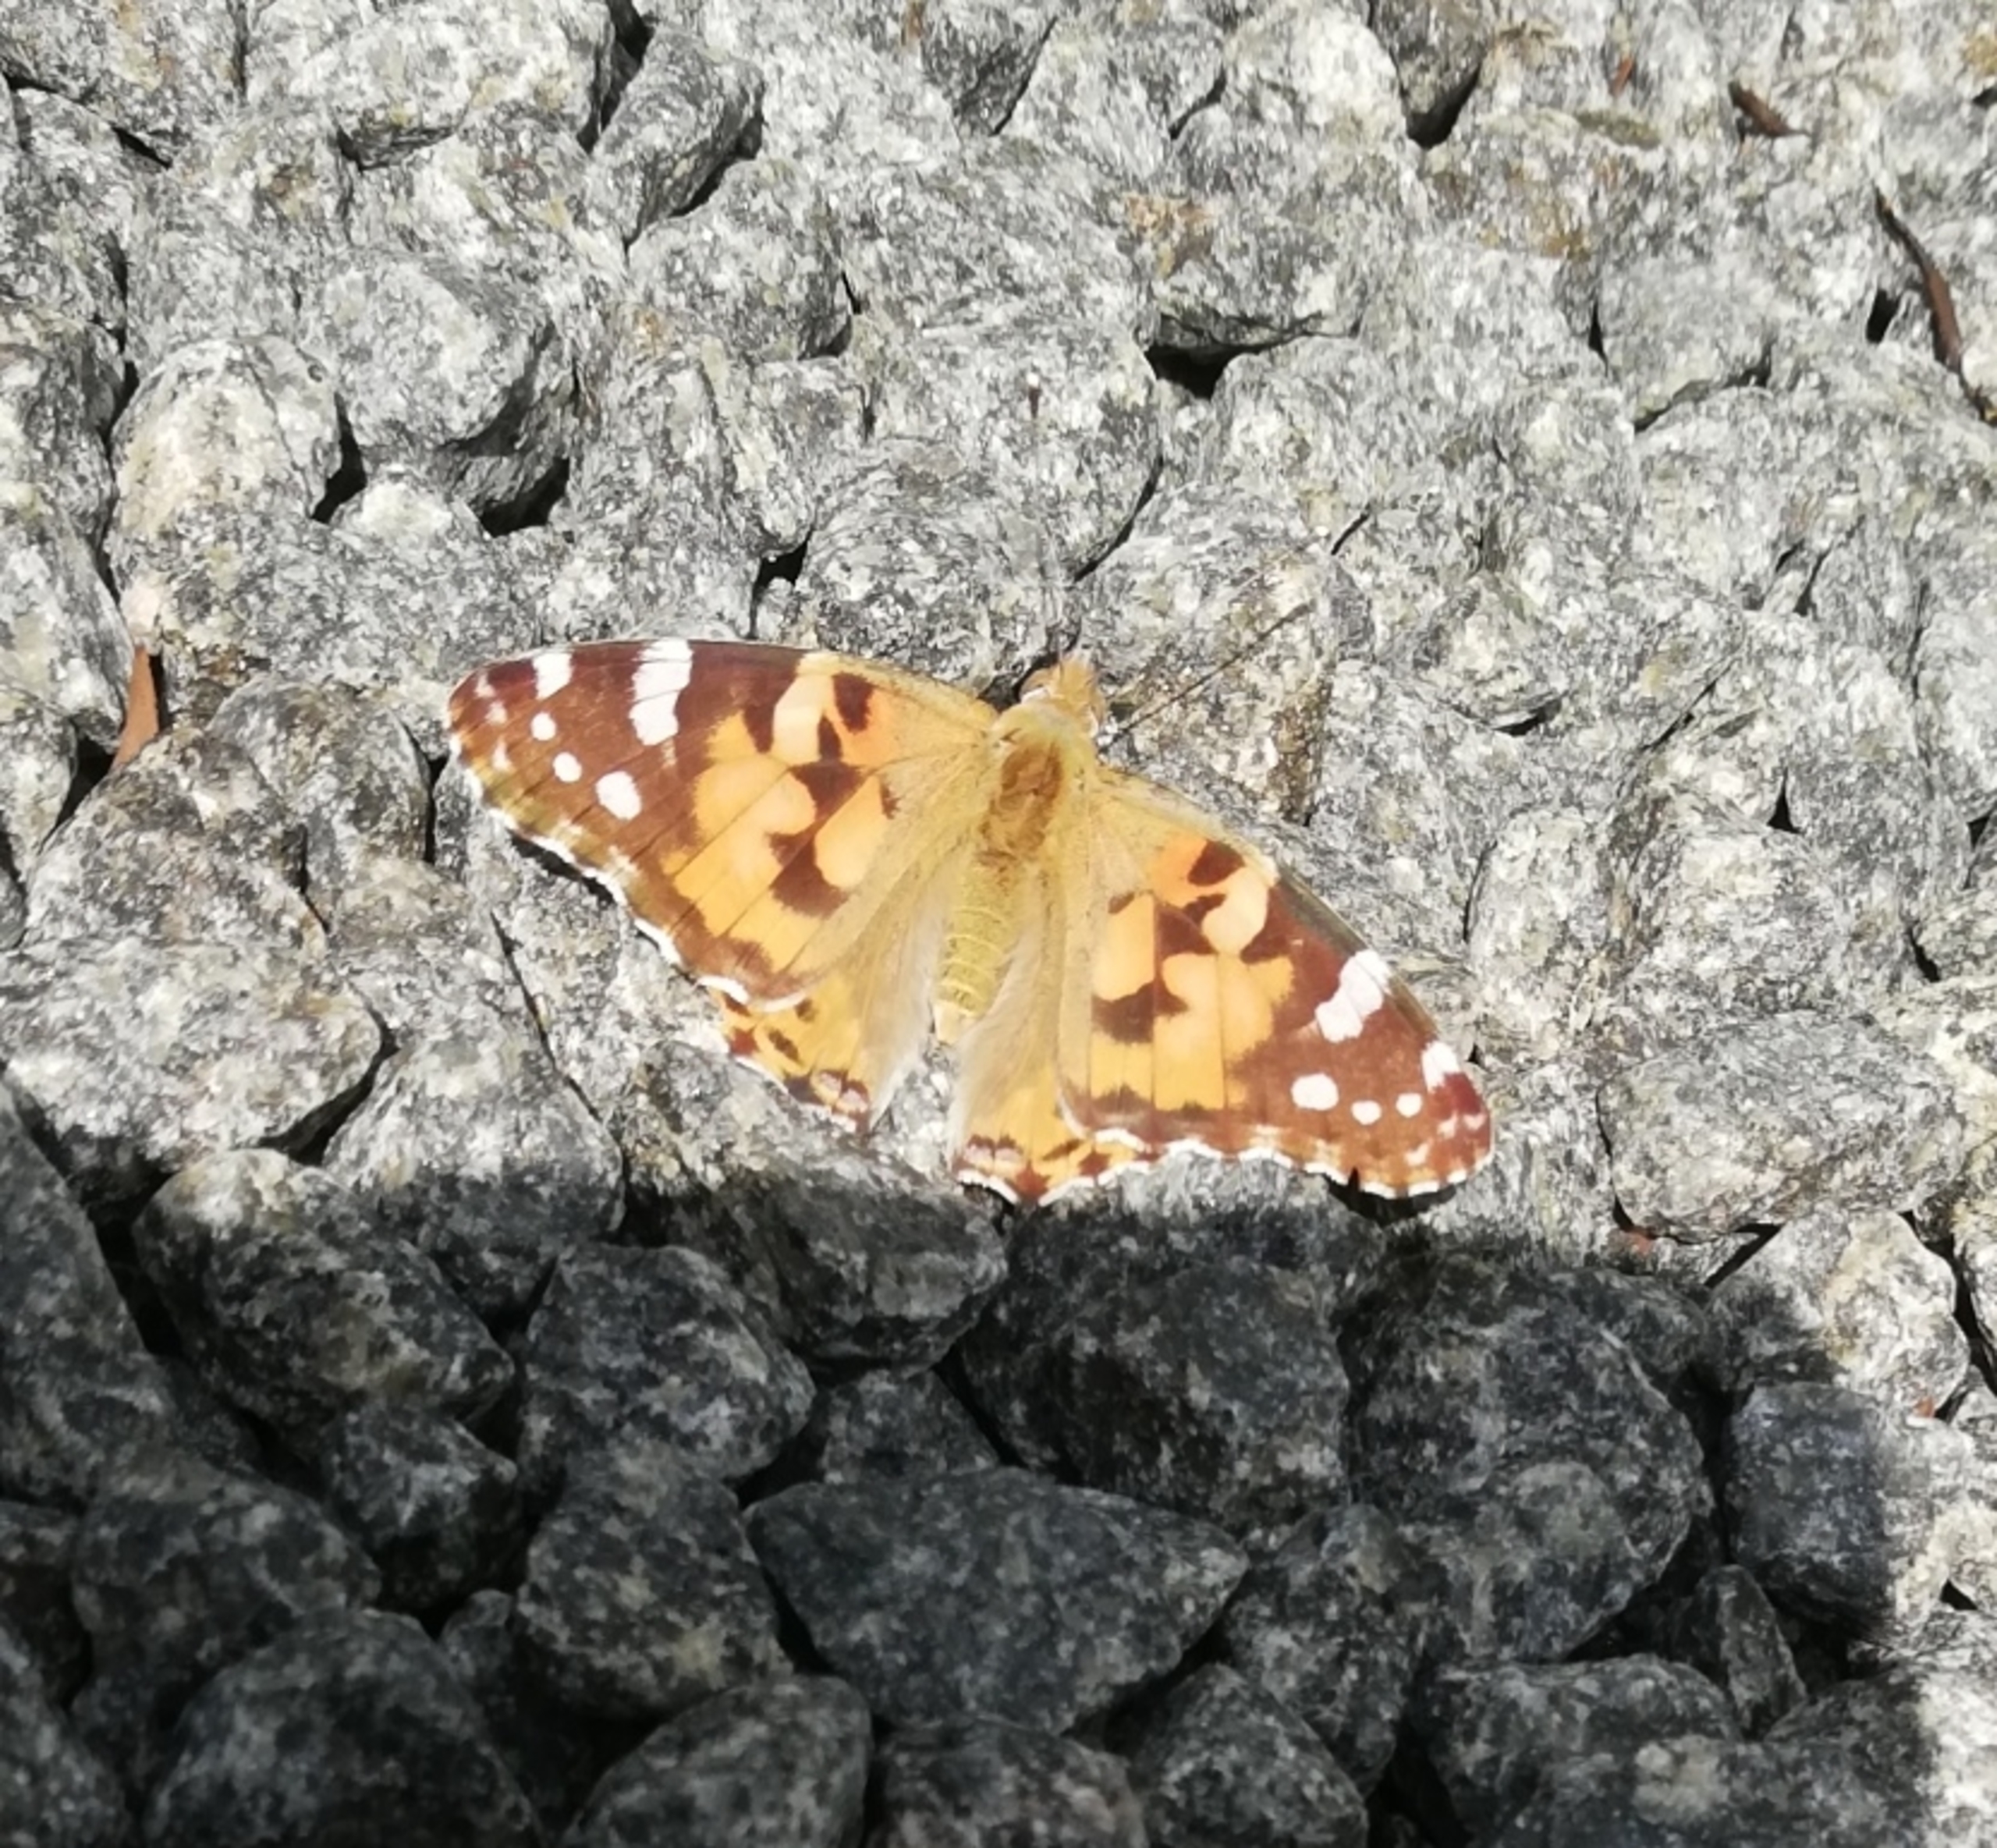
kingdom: Animalia
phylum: Arthropoda
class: Insecta
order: Lepidoptera
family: Nymphalidae
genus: Vanessa
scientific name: Vanessa cardui
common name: Tidselsommerfugl
